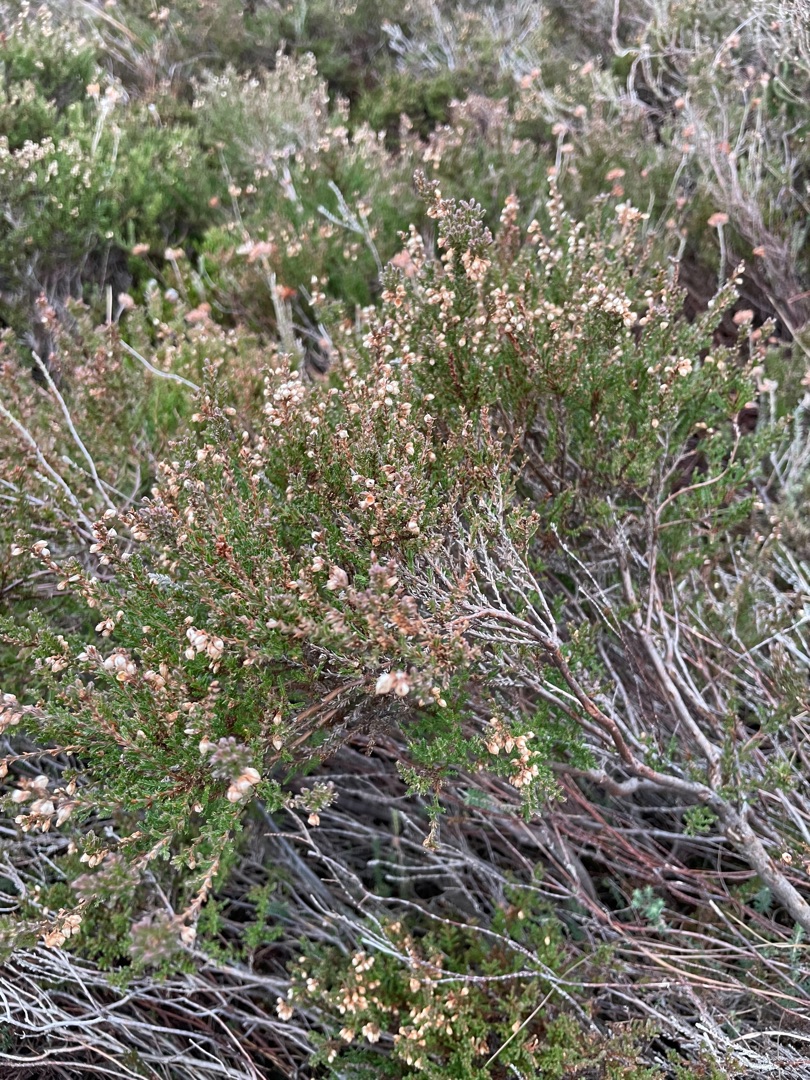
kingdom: Plantae
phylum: Tracheophyta
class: Magnoliopsida
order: Ericales
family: Ericaceae
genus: Calluna
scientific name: Calluna vulgaris
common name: Hedelyng
